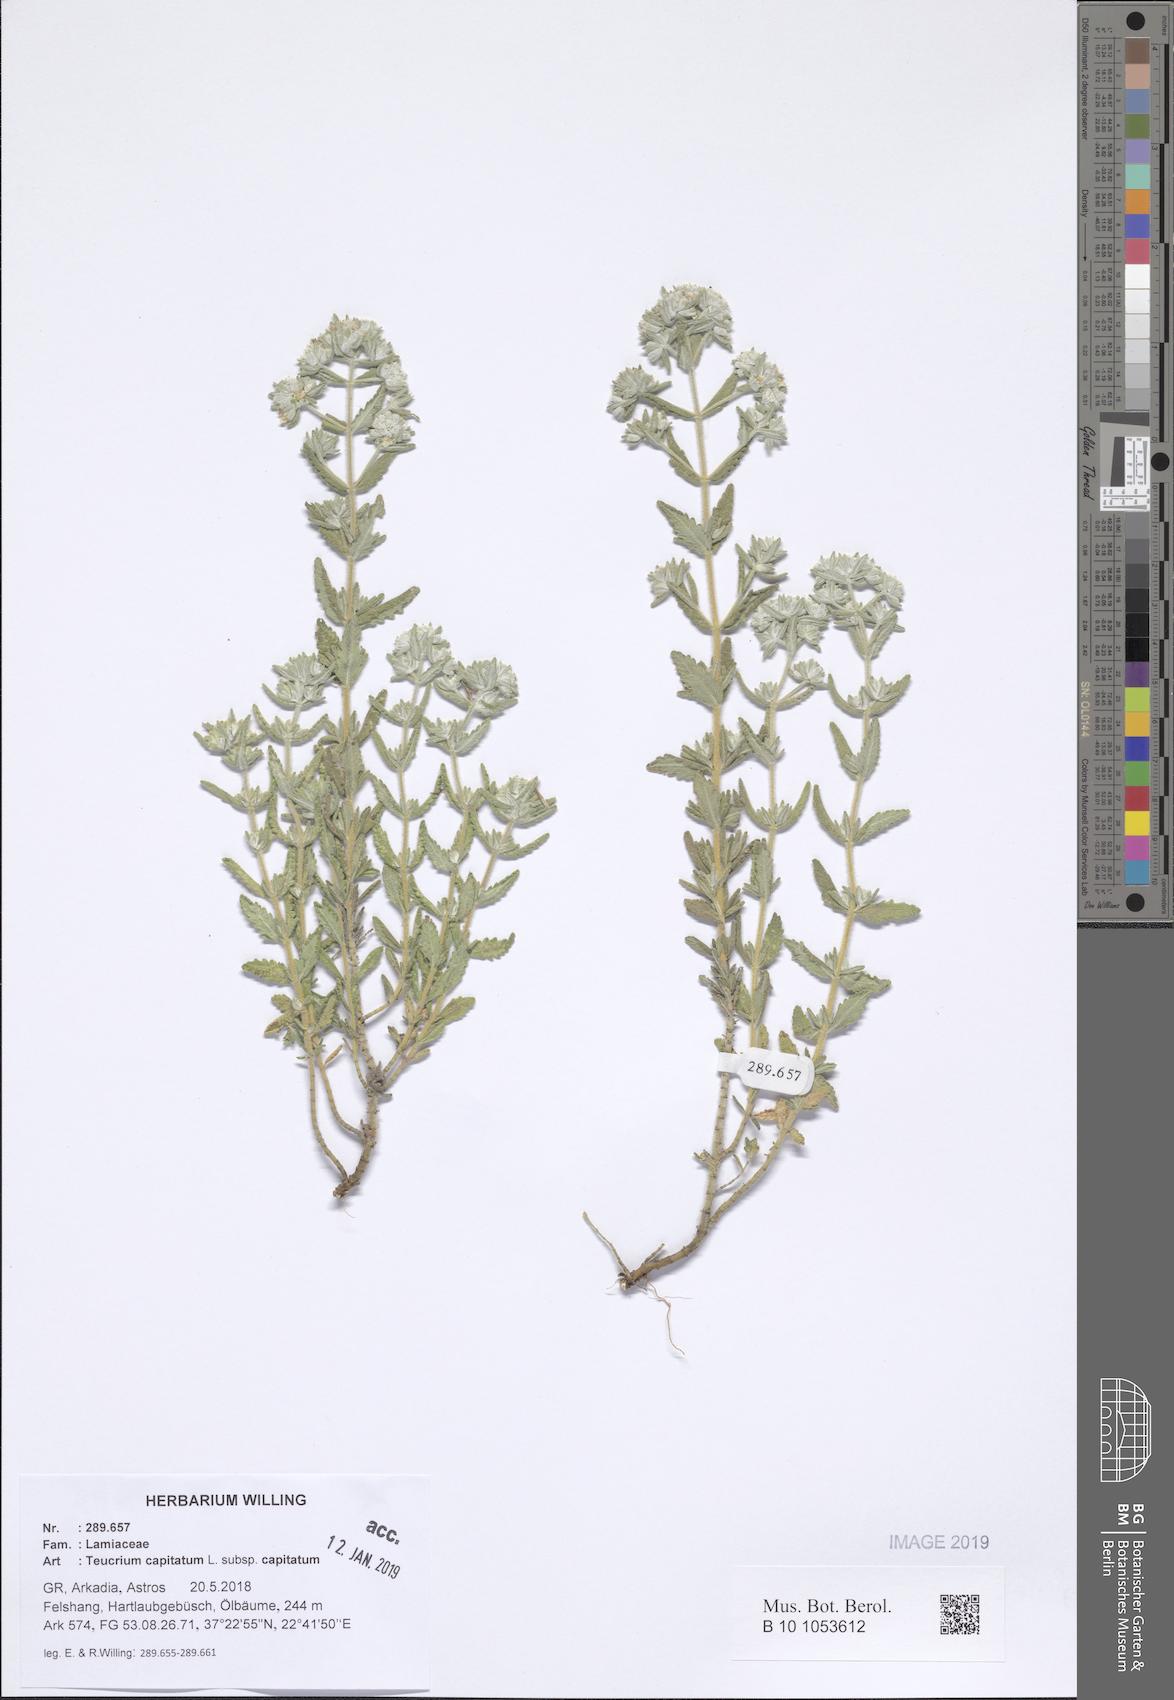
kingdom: Plantae
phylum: Tracheophyta
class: Magnoliopsida
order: Lamiales
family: Lamiaceae
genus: Teucrium
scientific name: Teucrium capitatum
